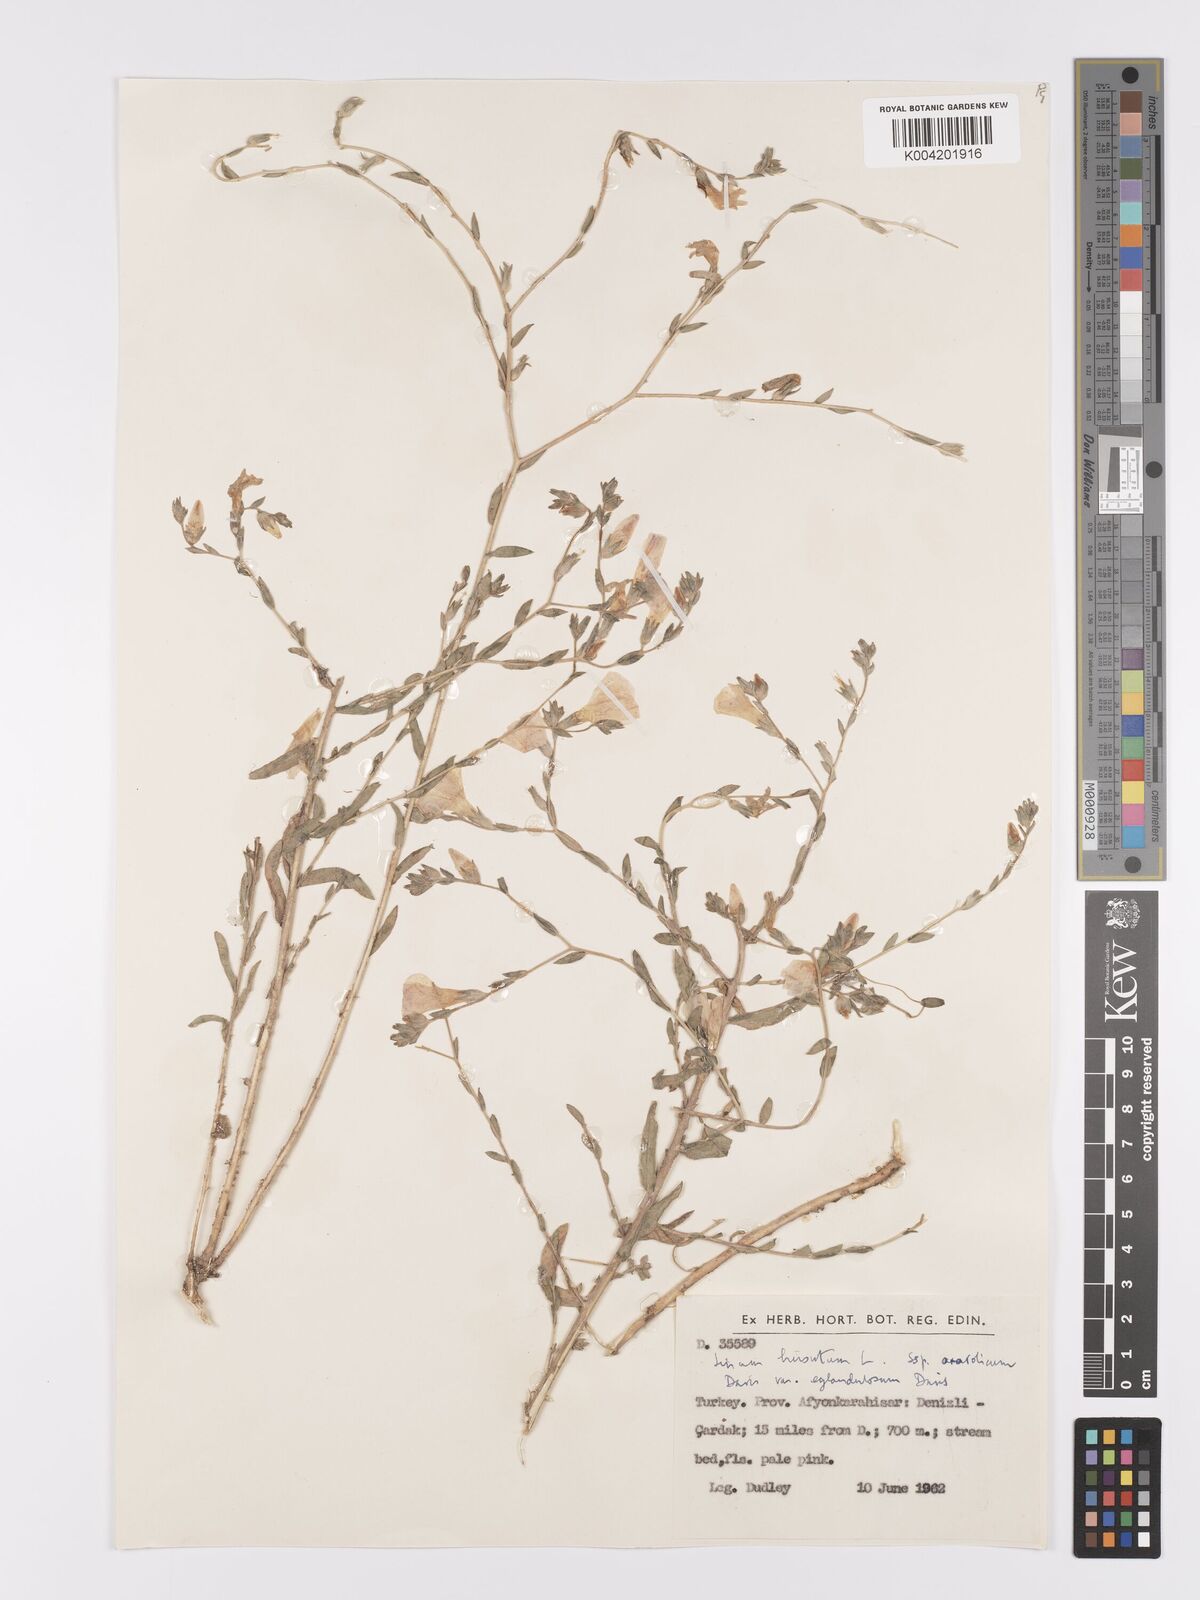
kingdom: Plantae
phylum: Tracheophyta
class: Magnoliopsida
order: Malpighiales
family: Linaceae
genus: Linum
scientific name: Linum
